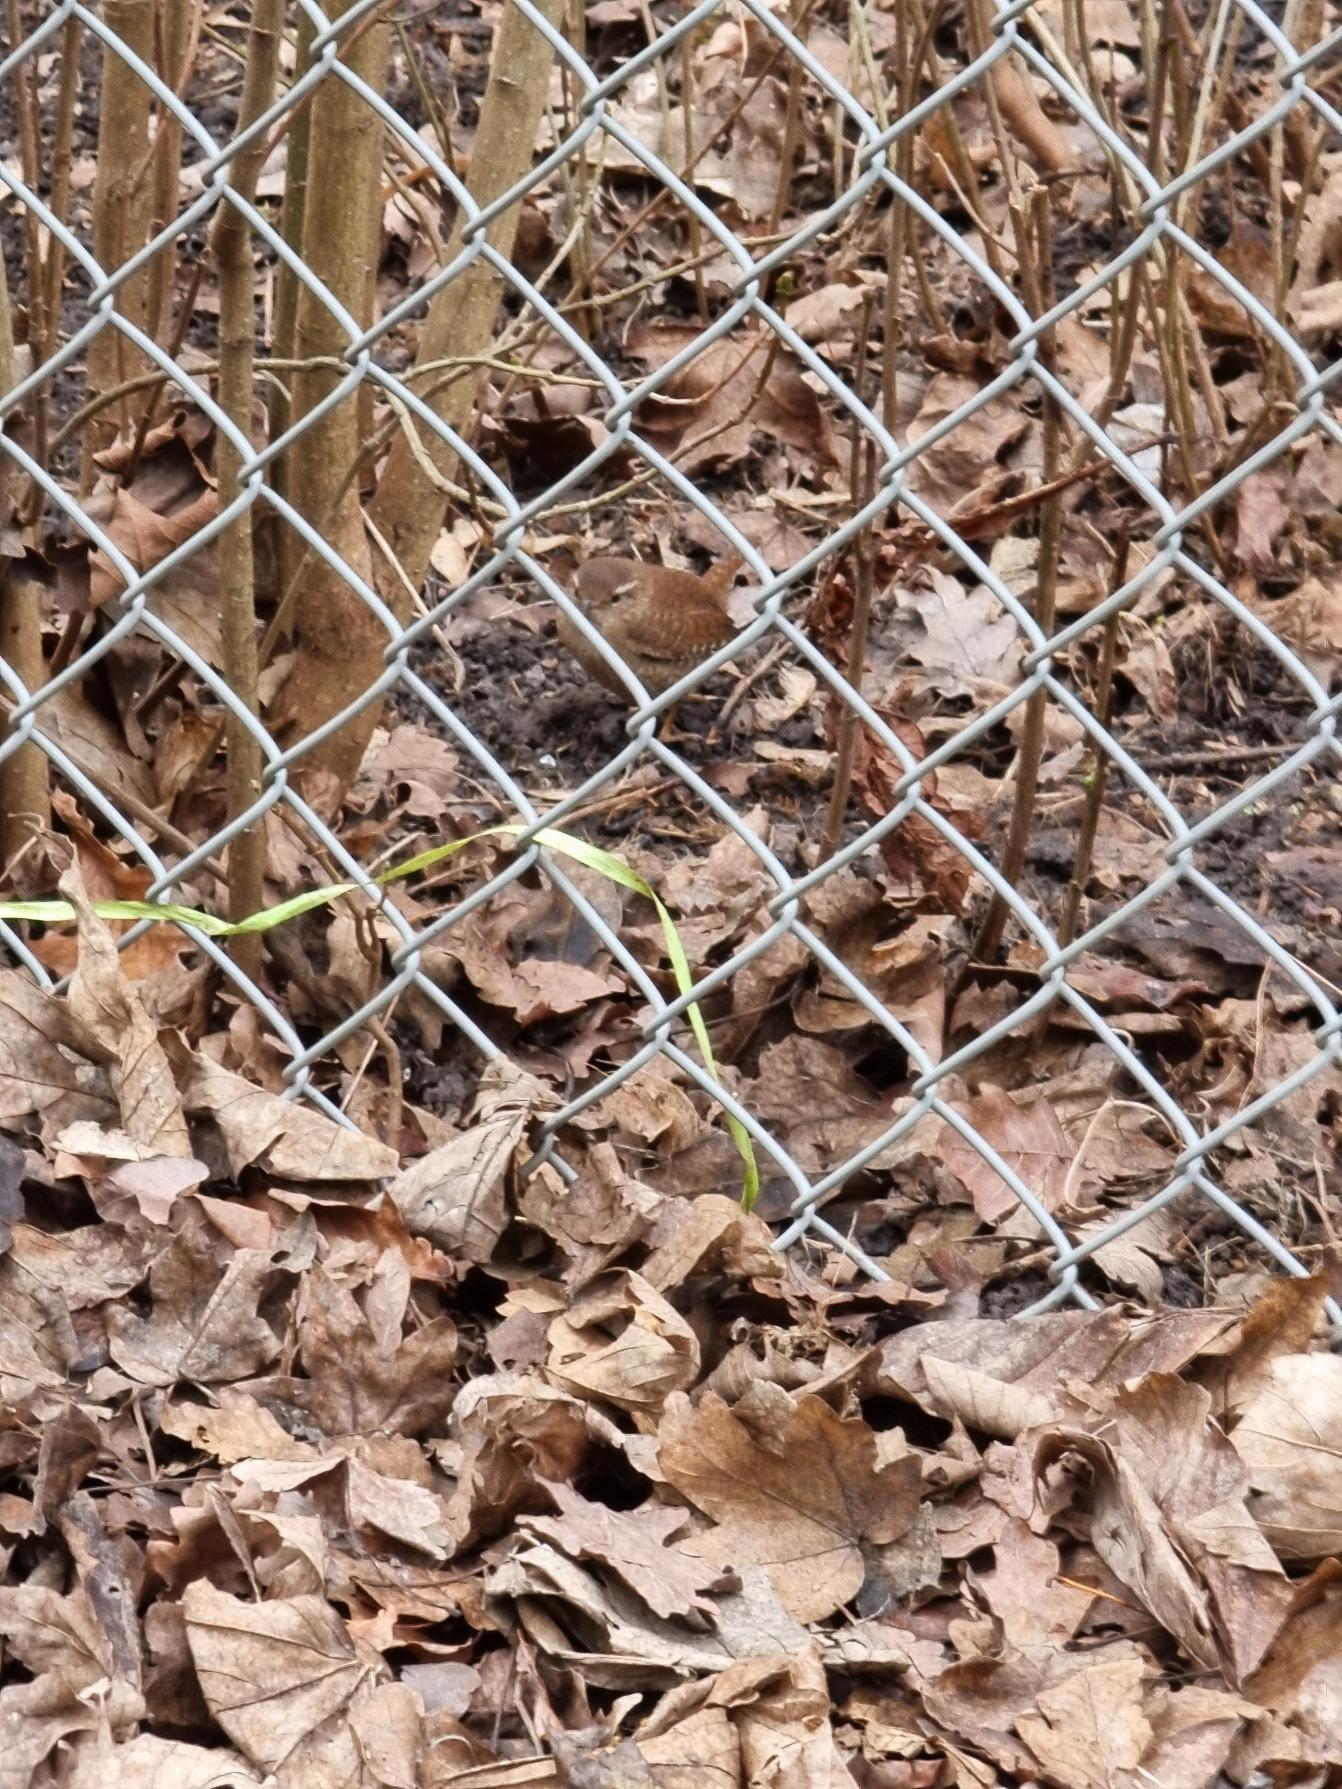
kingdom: Animalia
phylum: Chordata
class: Aves
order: Passeriformes
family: Troglodytidae
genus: Troglodytes
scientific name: Troglodytes troglodytes
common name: Gærdesmutte
